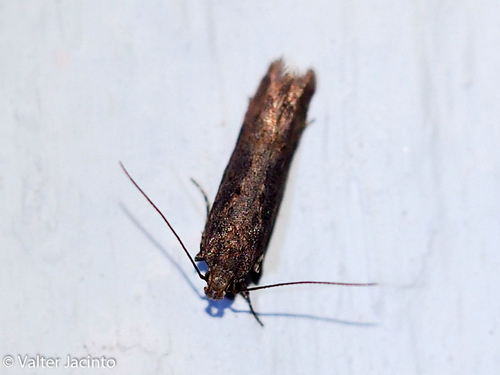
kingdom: Animalia
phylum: Arthropoda
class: Insecta
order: Lepidoptera
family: Gelechiidae
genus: Teleiopsis
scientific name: Teleiopsis diffinis
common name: Large groundling
